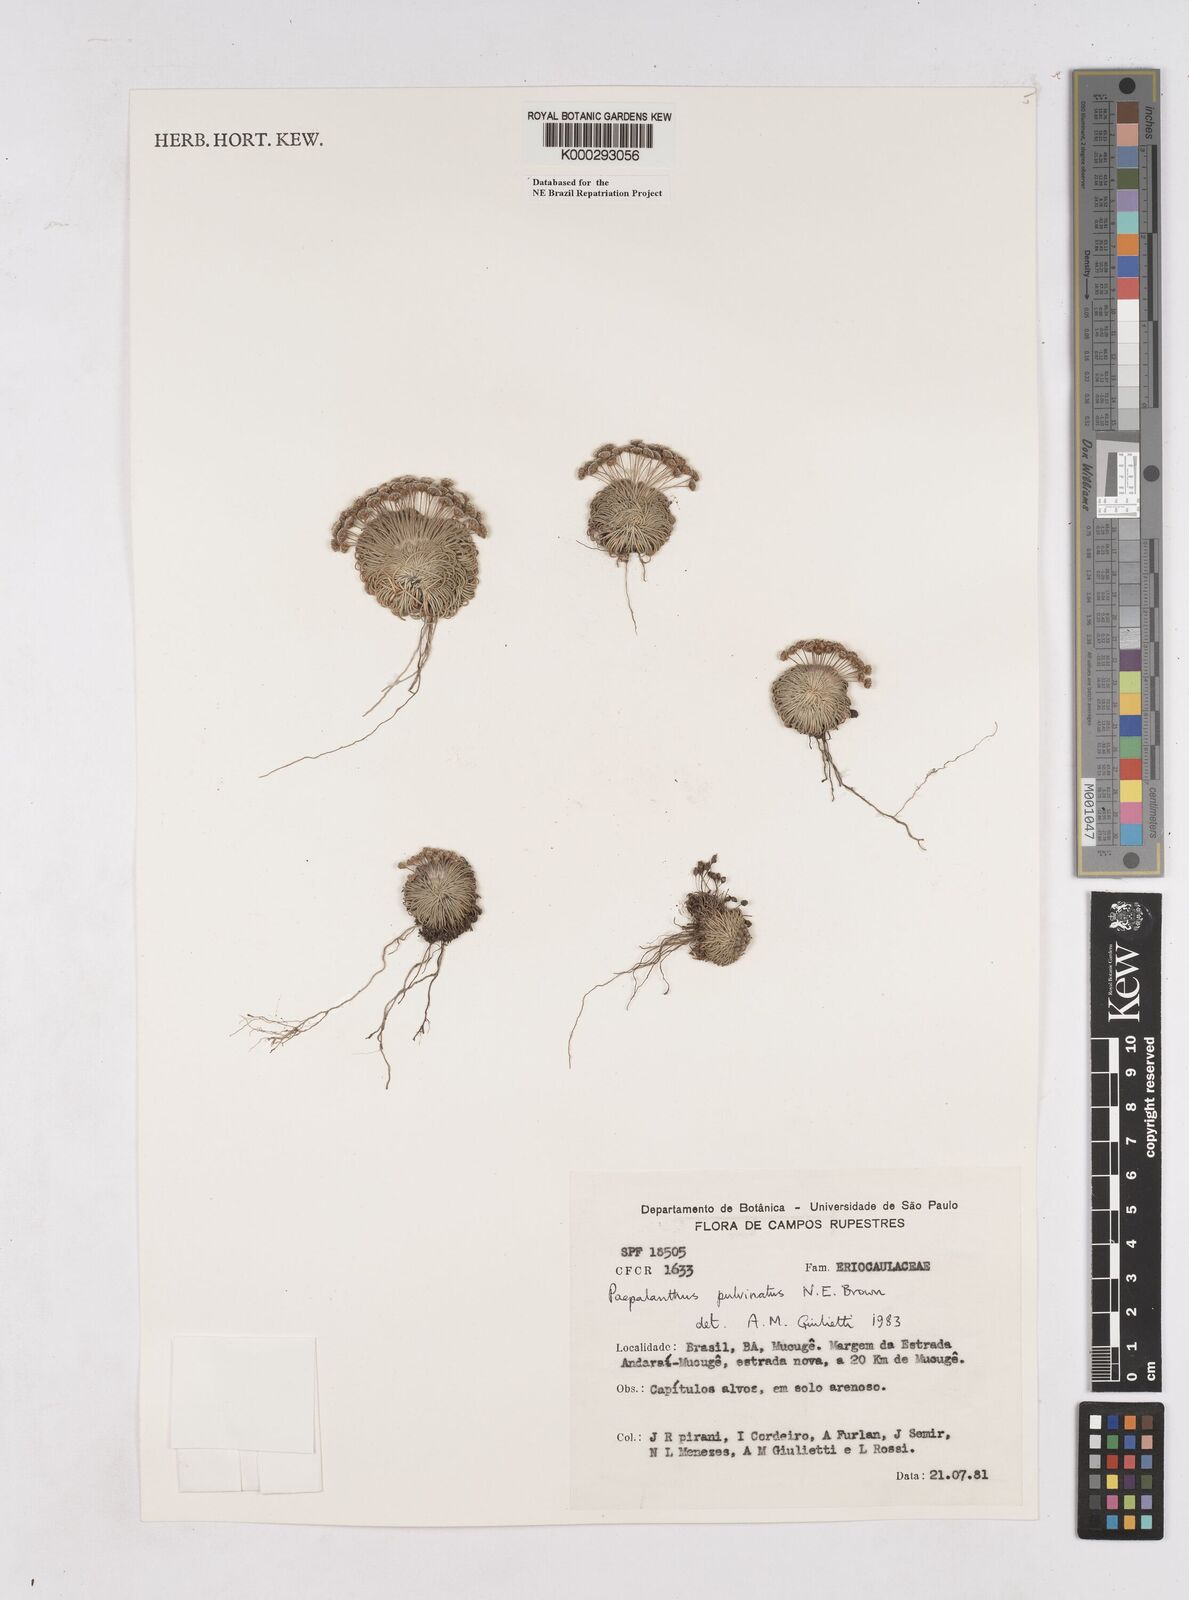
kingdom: Plantae
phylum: Tracheophyta
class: Liliopsida
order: Poales
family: Eriocaulaceae
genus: Paepalanthus
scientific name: Paepalanthus pulvinatus
